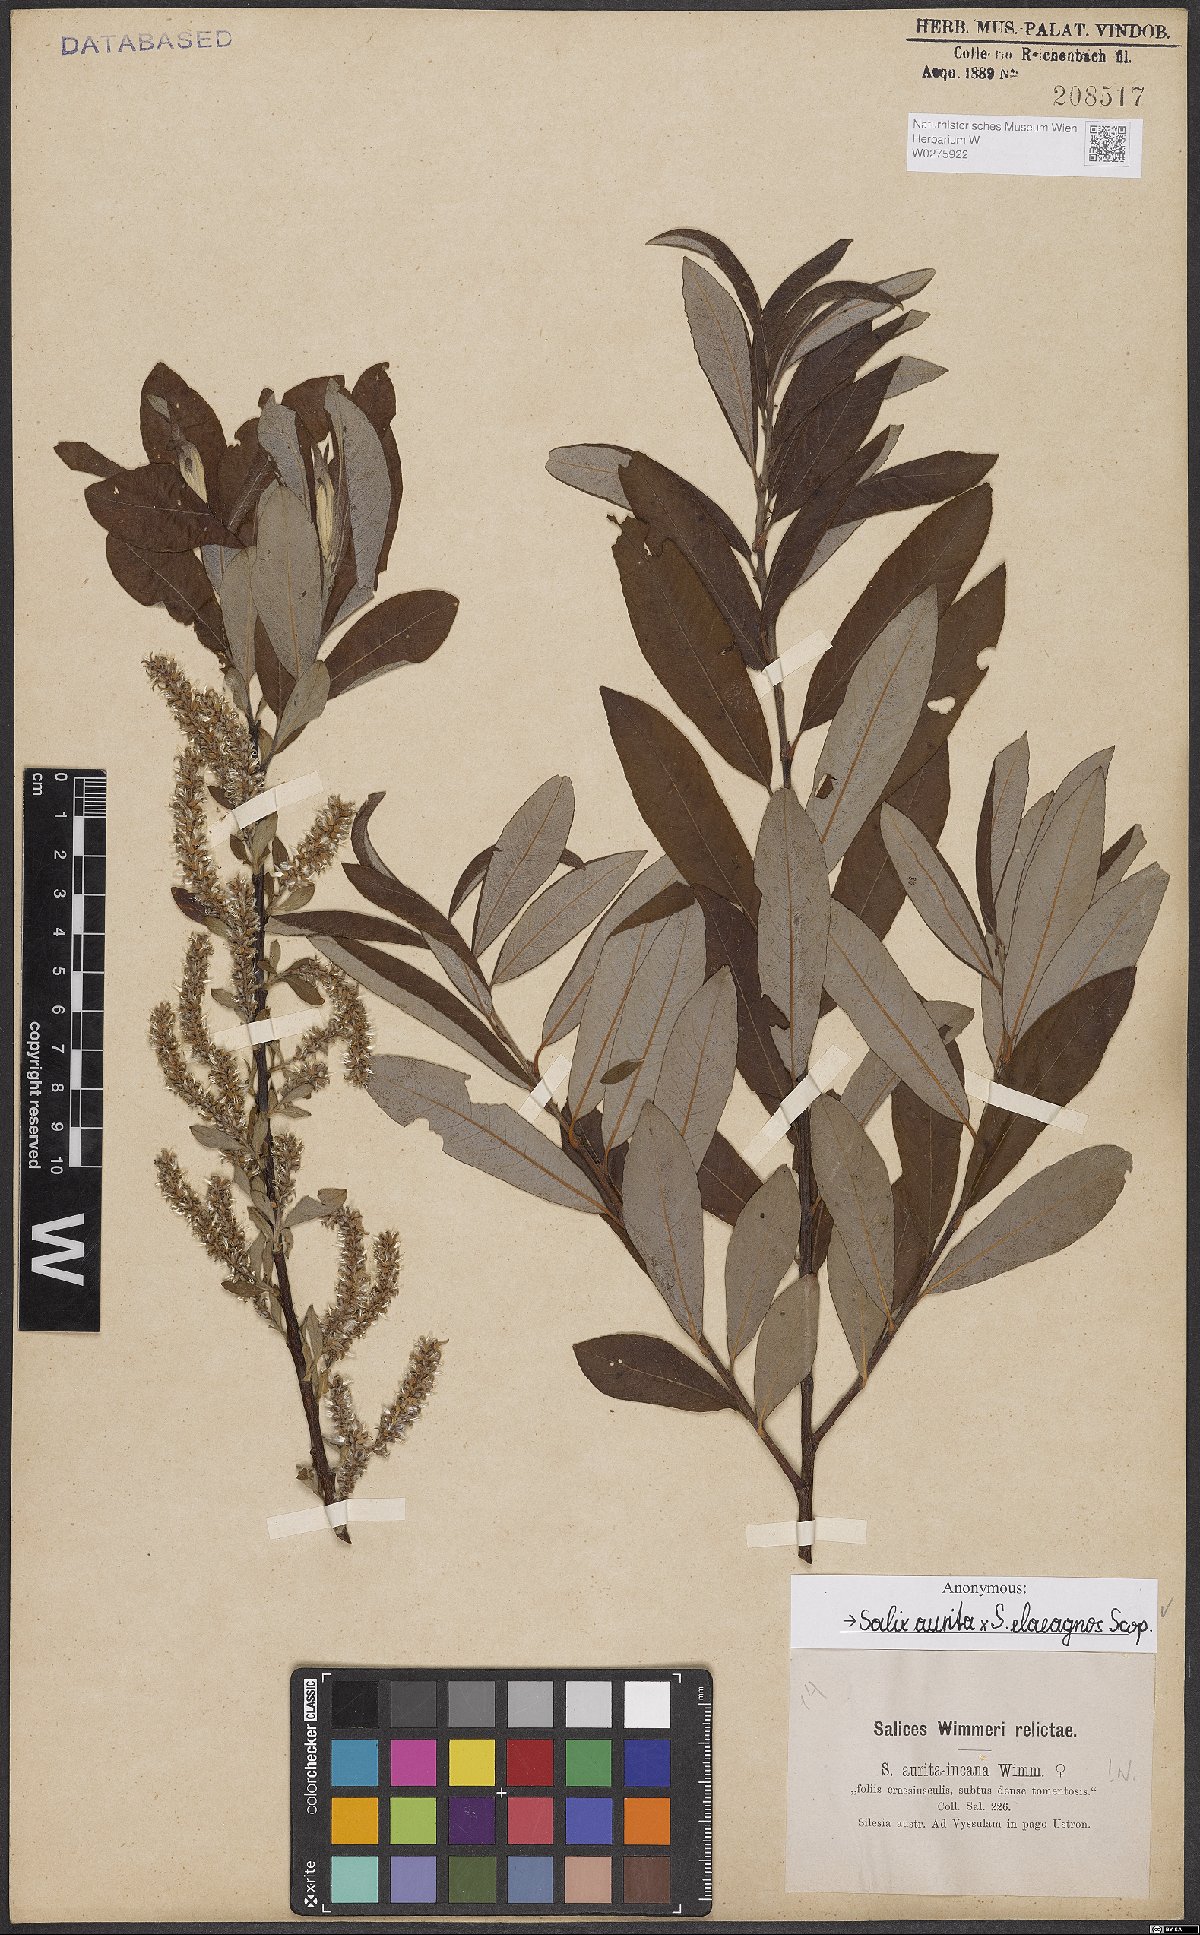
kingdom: Plantae
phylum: Tracheophyta
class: Magnoliopsida
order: Malpighiales
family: Salicaceae
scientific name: Salicaceae
